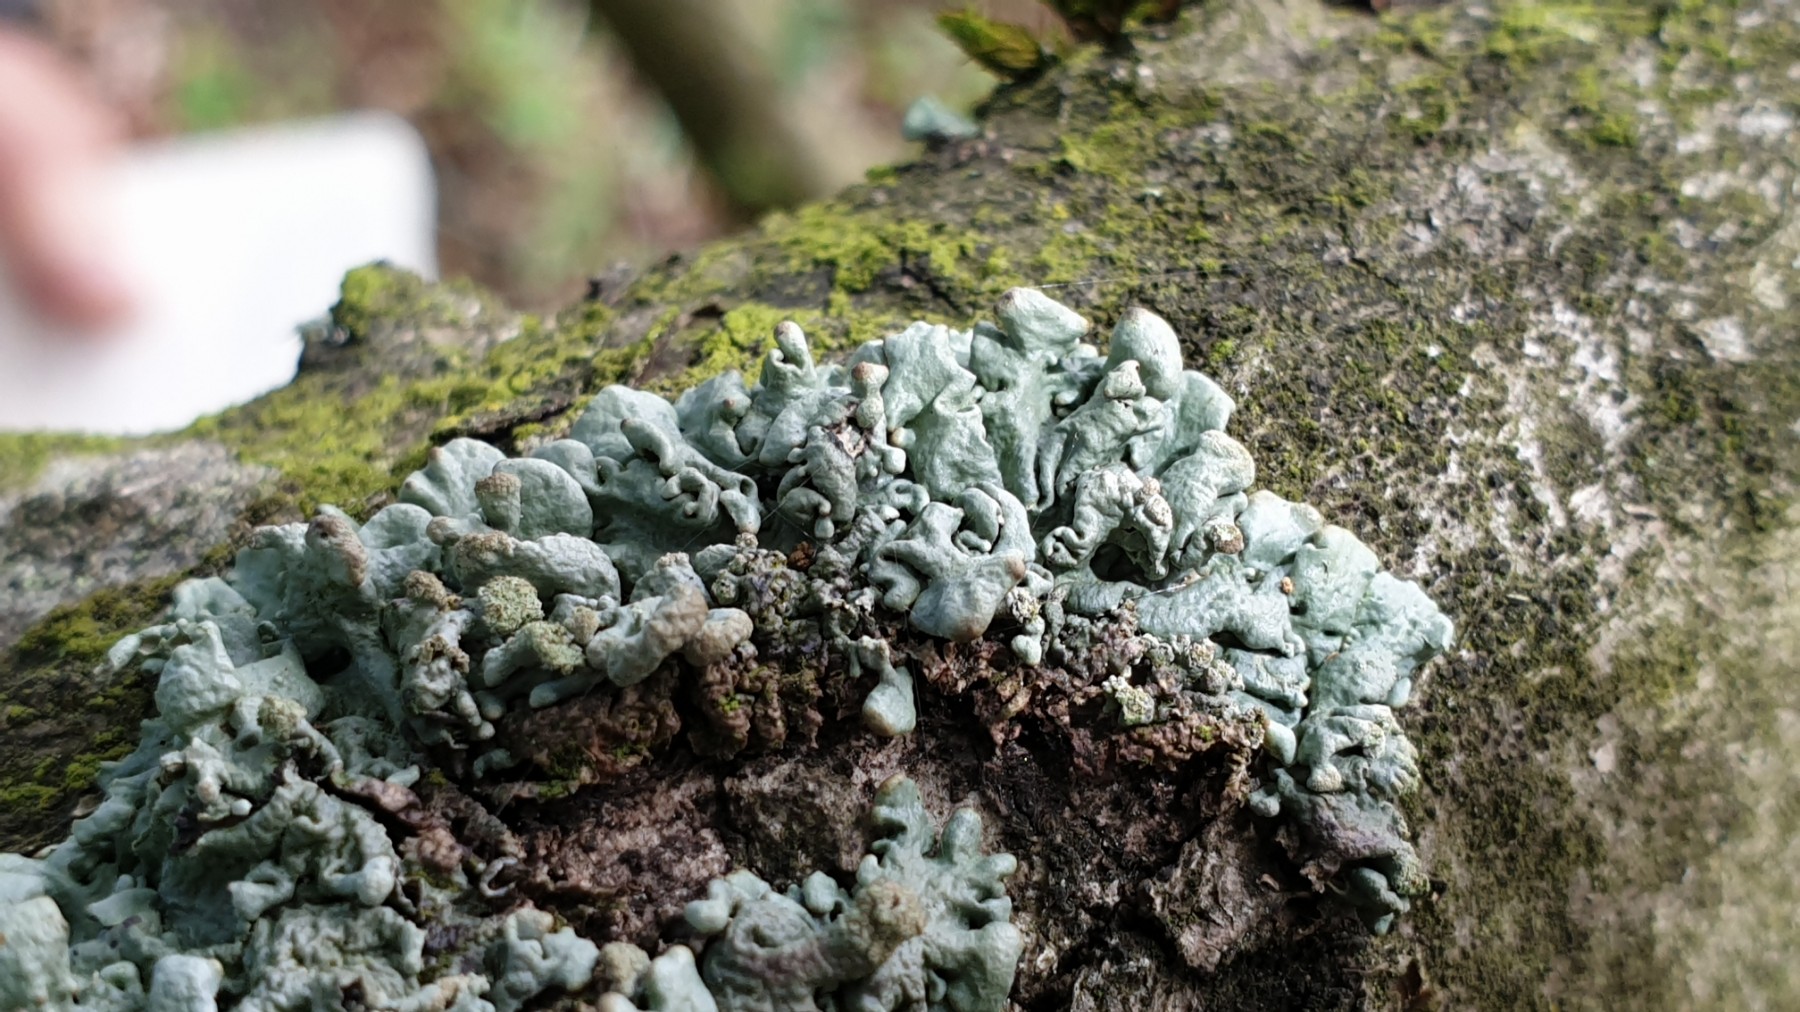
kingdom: Fungi
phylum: Ascomycota
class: Lecanoromycetes
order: Lecanorales
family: Parmeliaceae
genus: Hypogymnia
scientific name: Hypogymnia tubulosa
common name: finger-kvistlav
